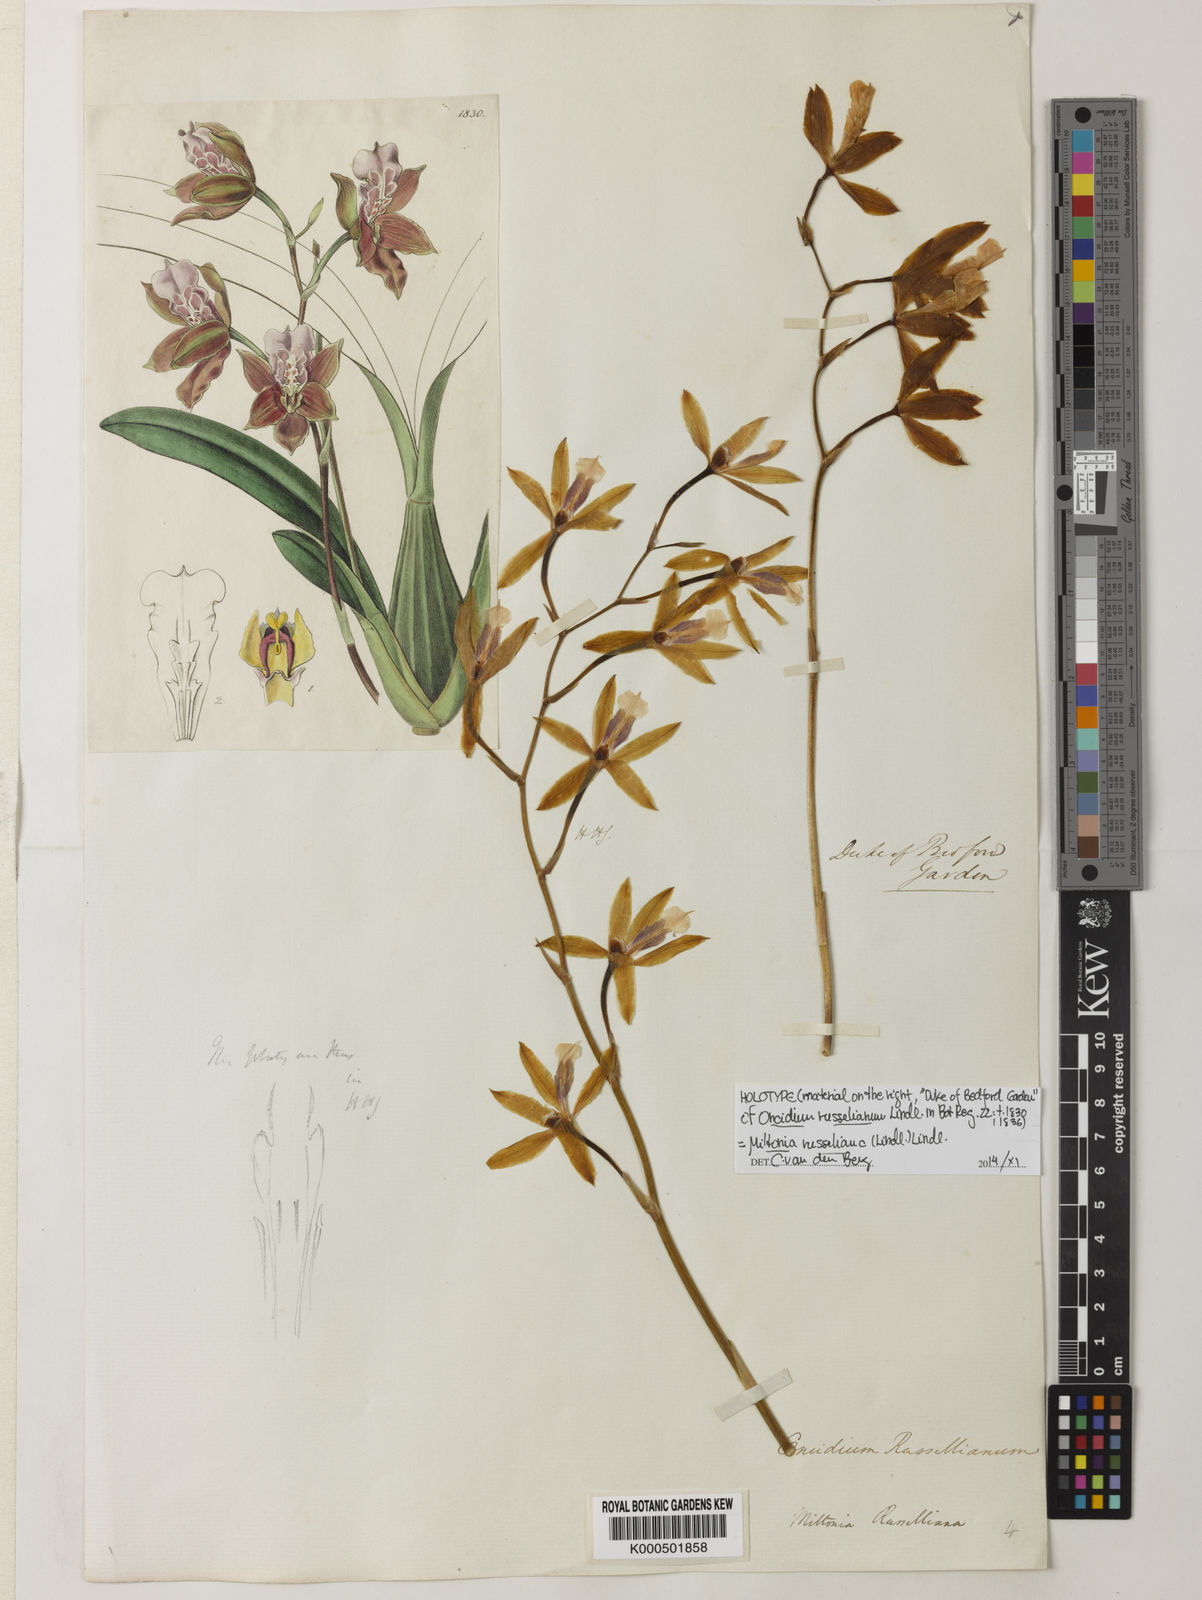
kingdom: Plantae
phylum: Tracheophyta
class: Liliopsida
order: Asparagales
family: Orchidaceae
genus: Miltonia
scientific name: Miltonia russelliana
